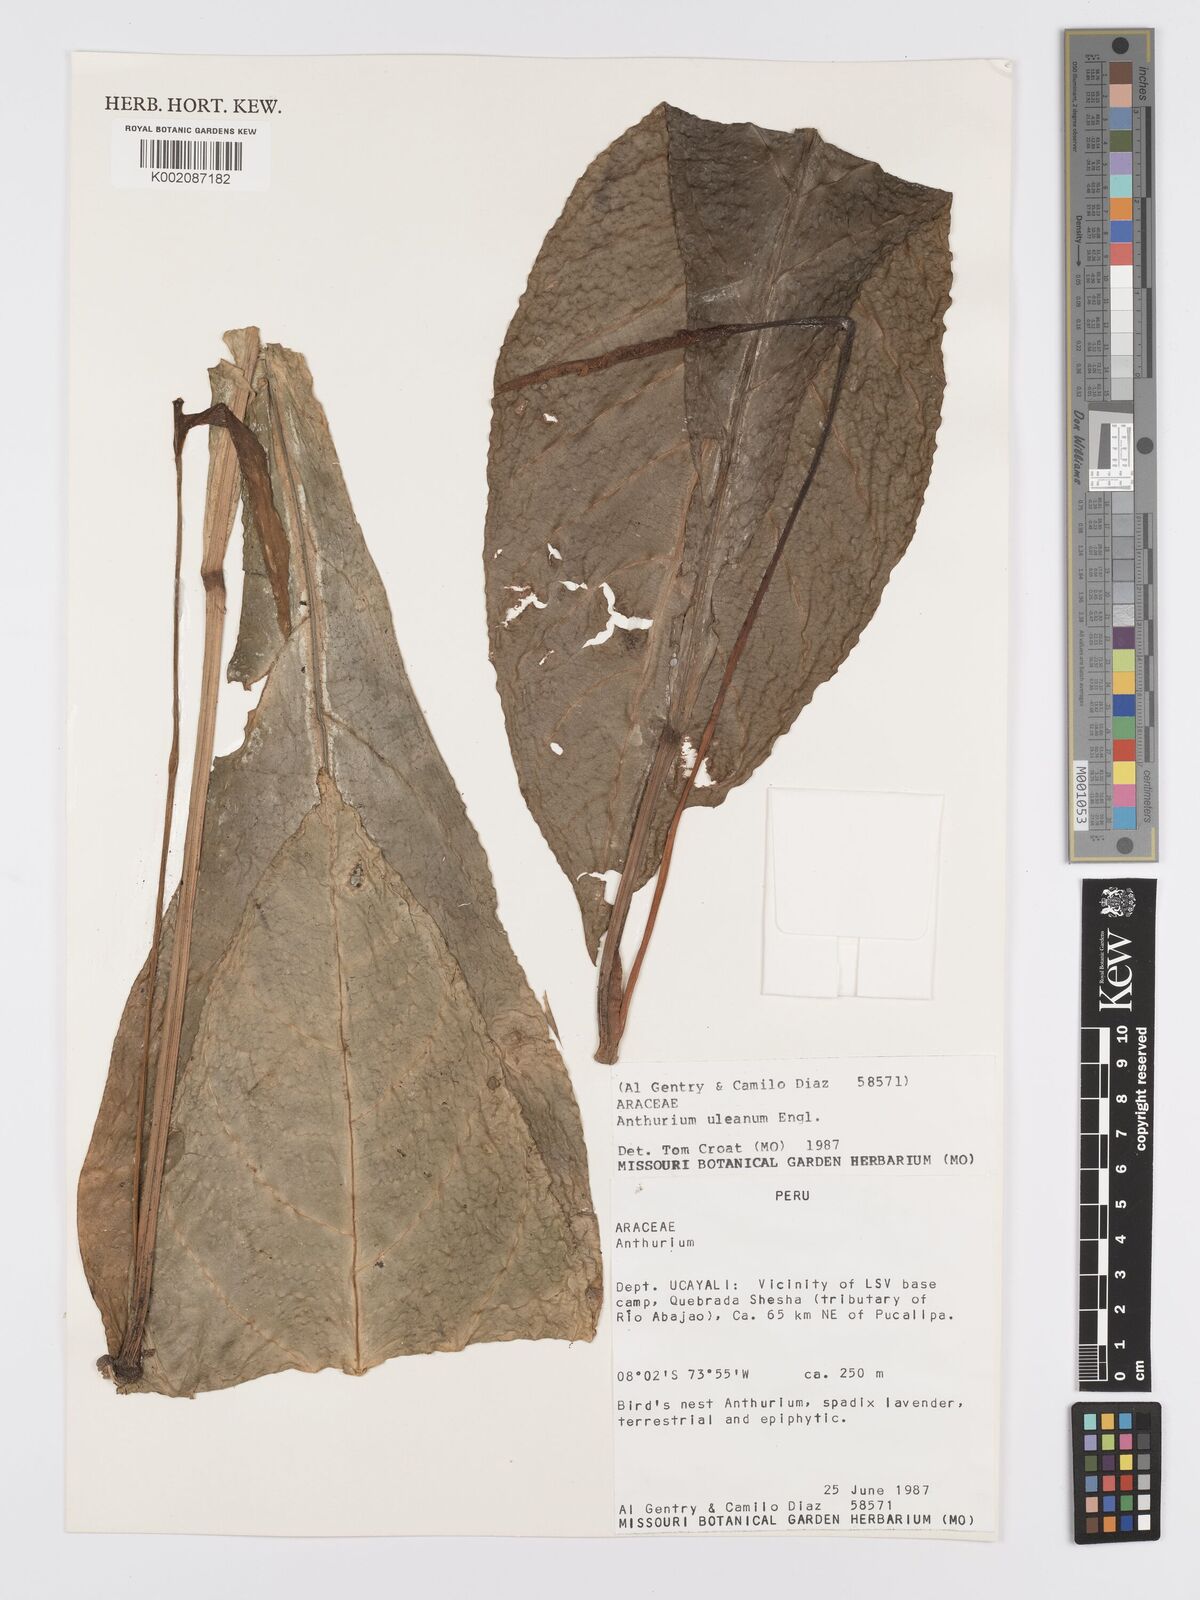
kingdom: Plantae
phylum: Tracheophyta
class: Liliopsida
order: Alismatales
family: Araceae
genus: Anthurium
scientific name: Anthurium uleanum
